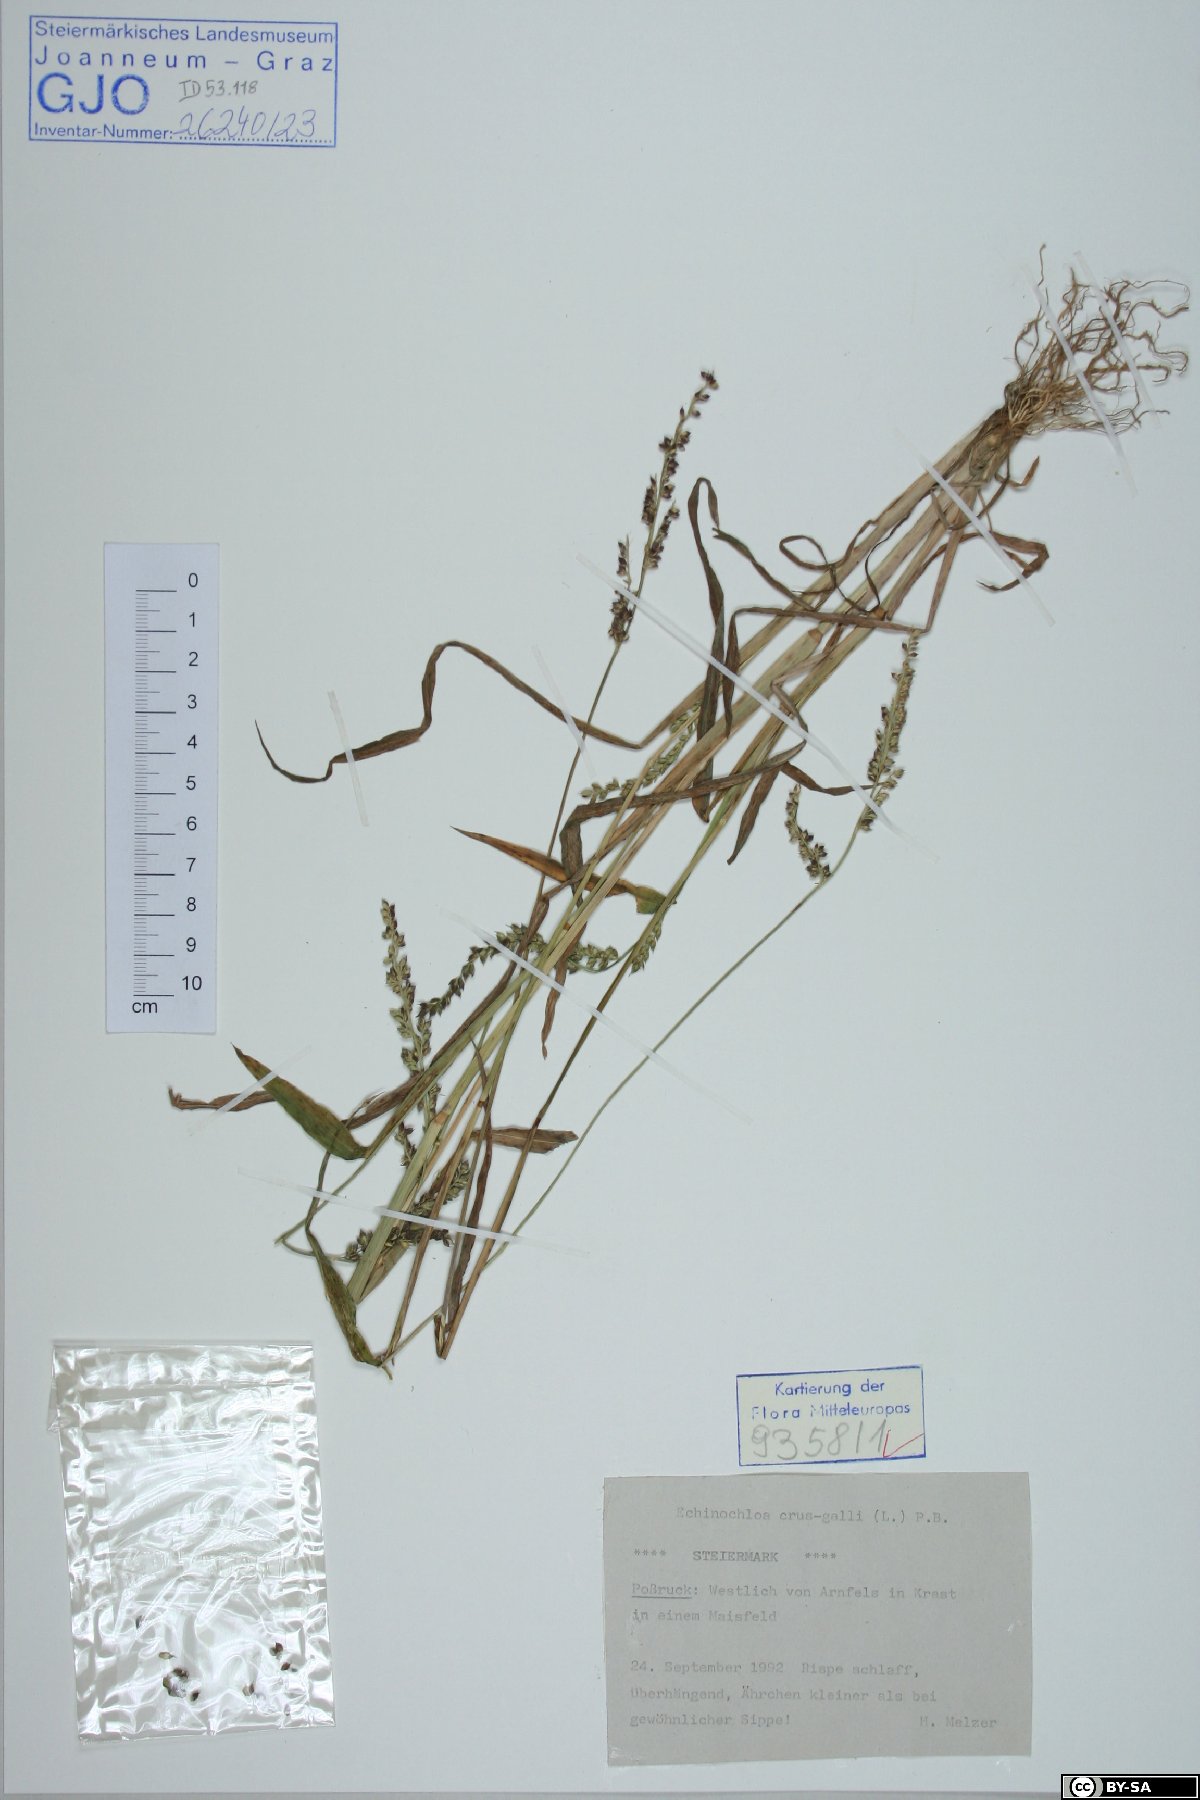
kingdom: Plantae
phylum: Tracheophyta
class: Liliopsida
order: Poales
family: Poaceae
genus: Echinochloa
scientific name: Echinochloa crus-galli
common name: Cockspur
